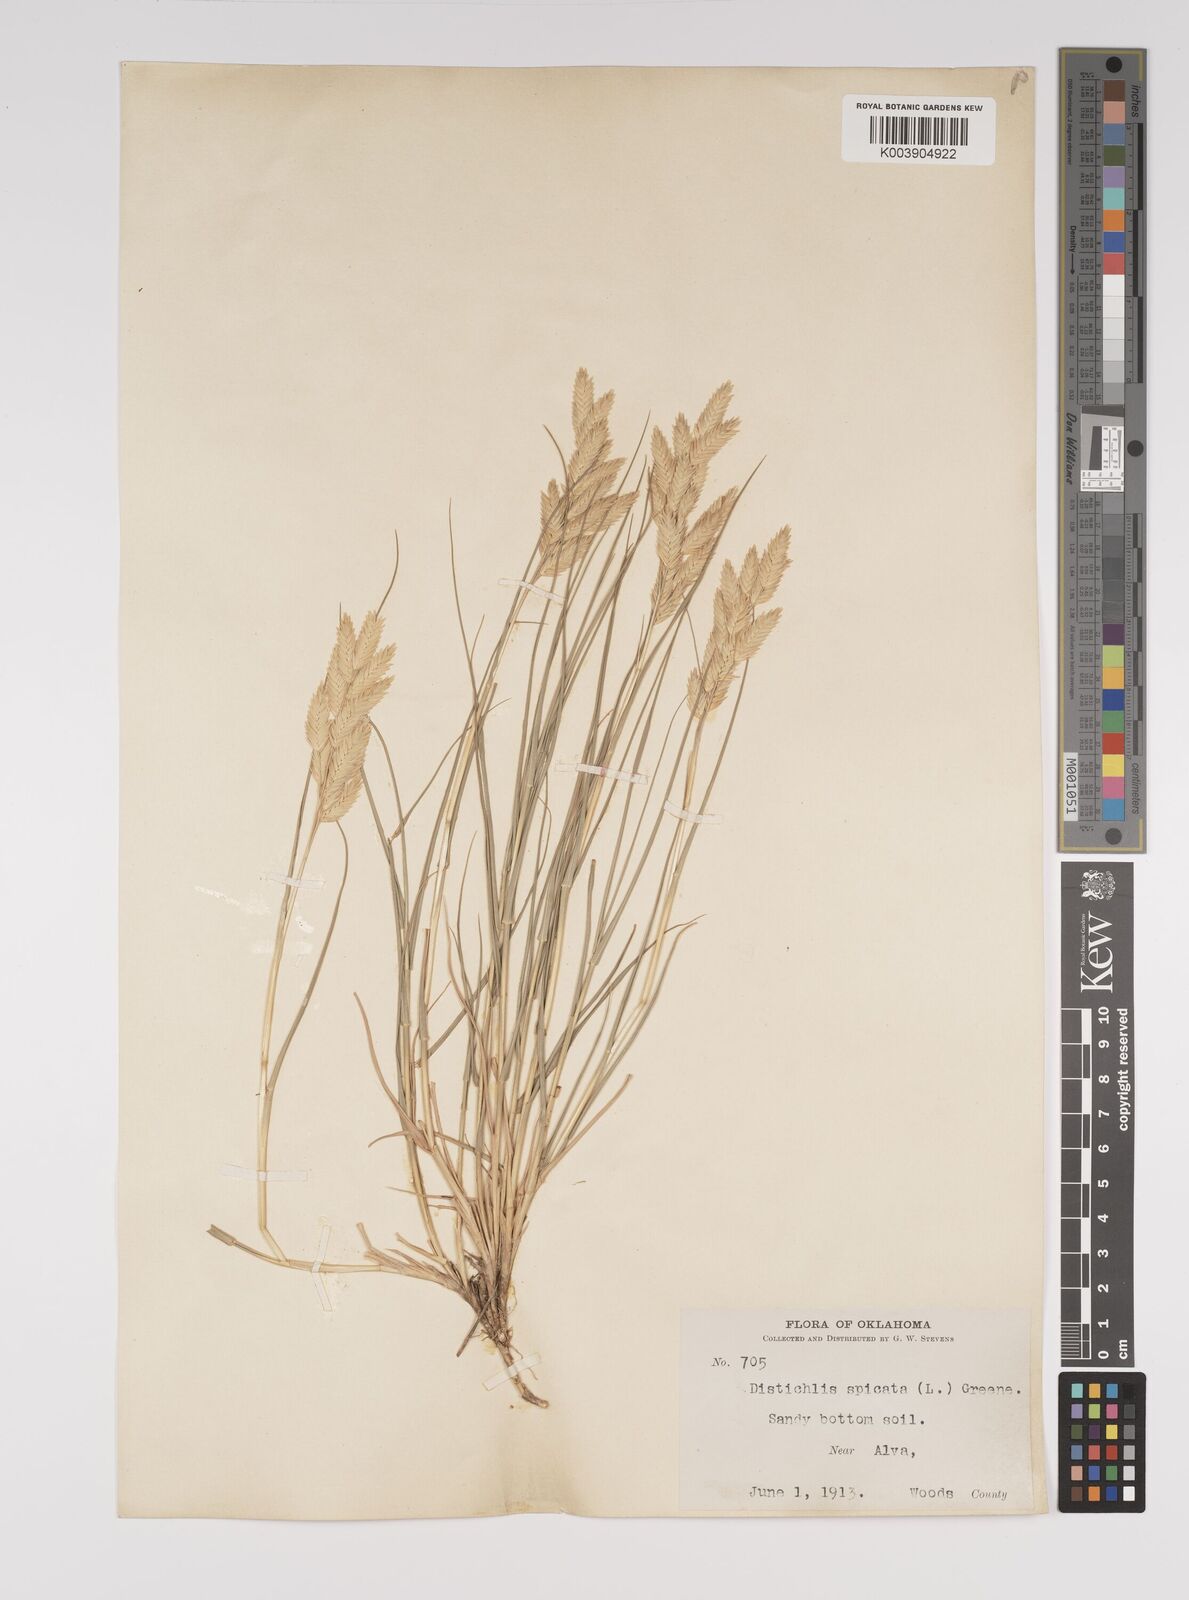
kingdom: Plantae
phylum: Tracheophyta
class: Liliopsida
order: Poales
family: Poaceae
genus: Distichlis
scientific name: Distichlis spicata
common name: Saltgrass
